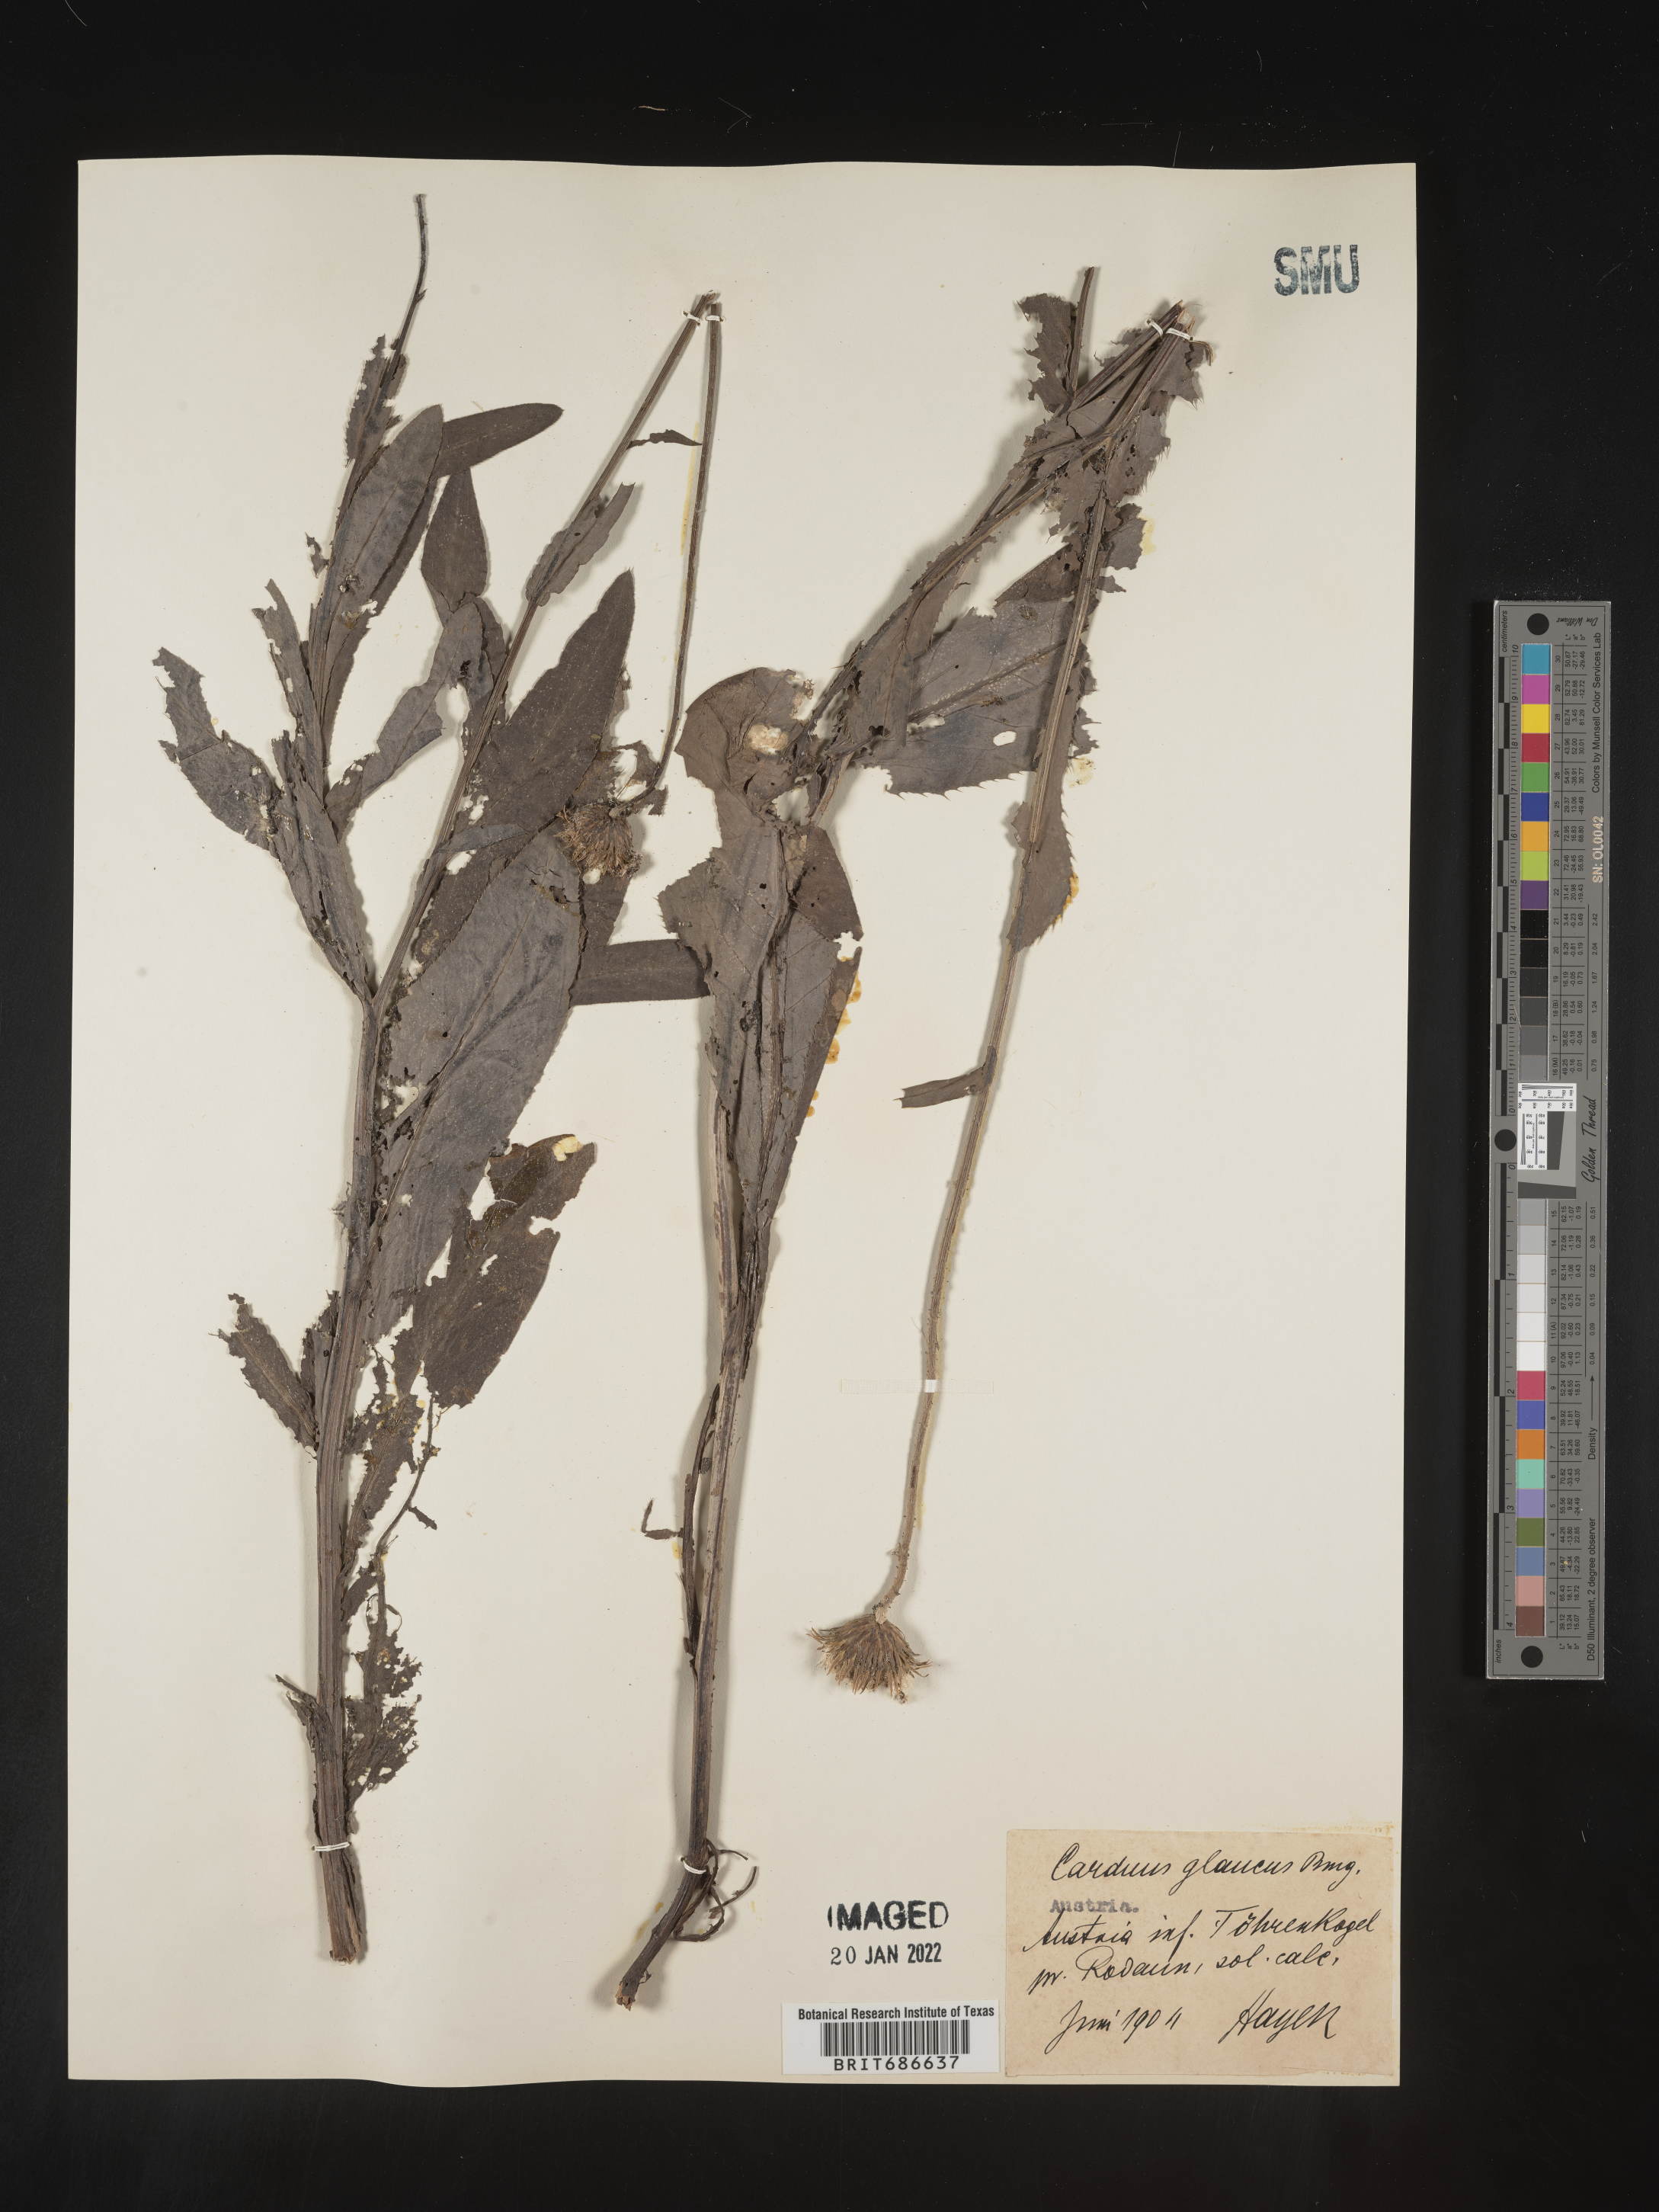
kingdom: Plantae
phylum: Tracheophyta
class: Magnoliopsida
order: Asterales
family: Asteraceae
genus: Carduus
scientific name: Carduus
